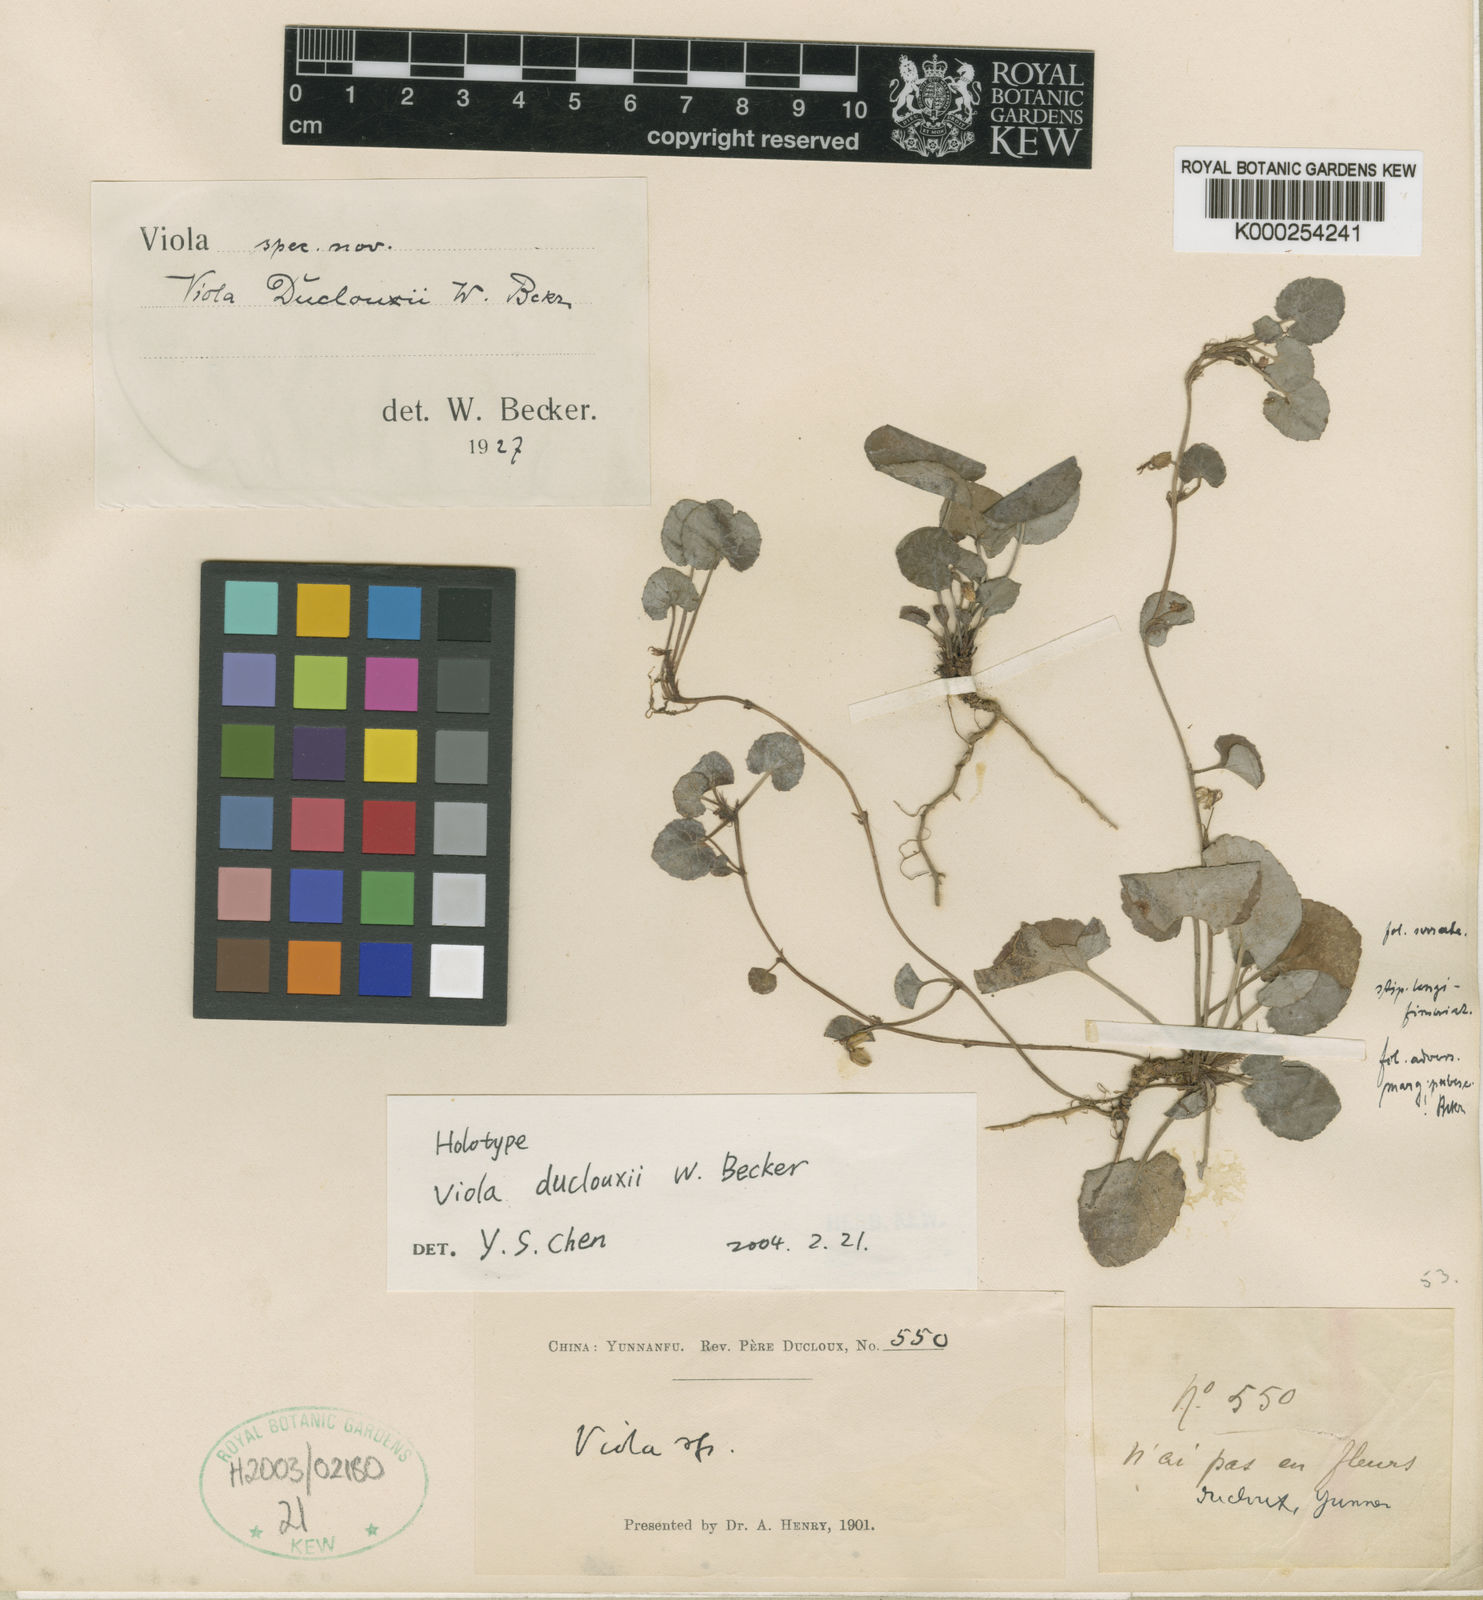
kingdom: Plantae
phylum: Tracheophyta
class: Magnoliopsida
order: Malpighiales
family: Violaceae
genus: Viola
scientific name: Viola duclouxii
